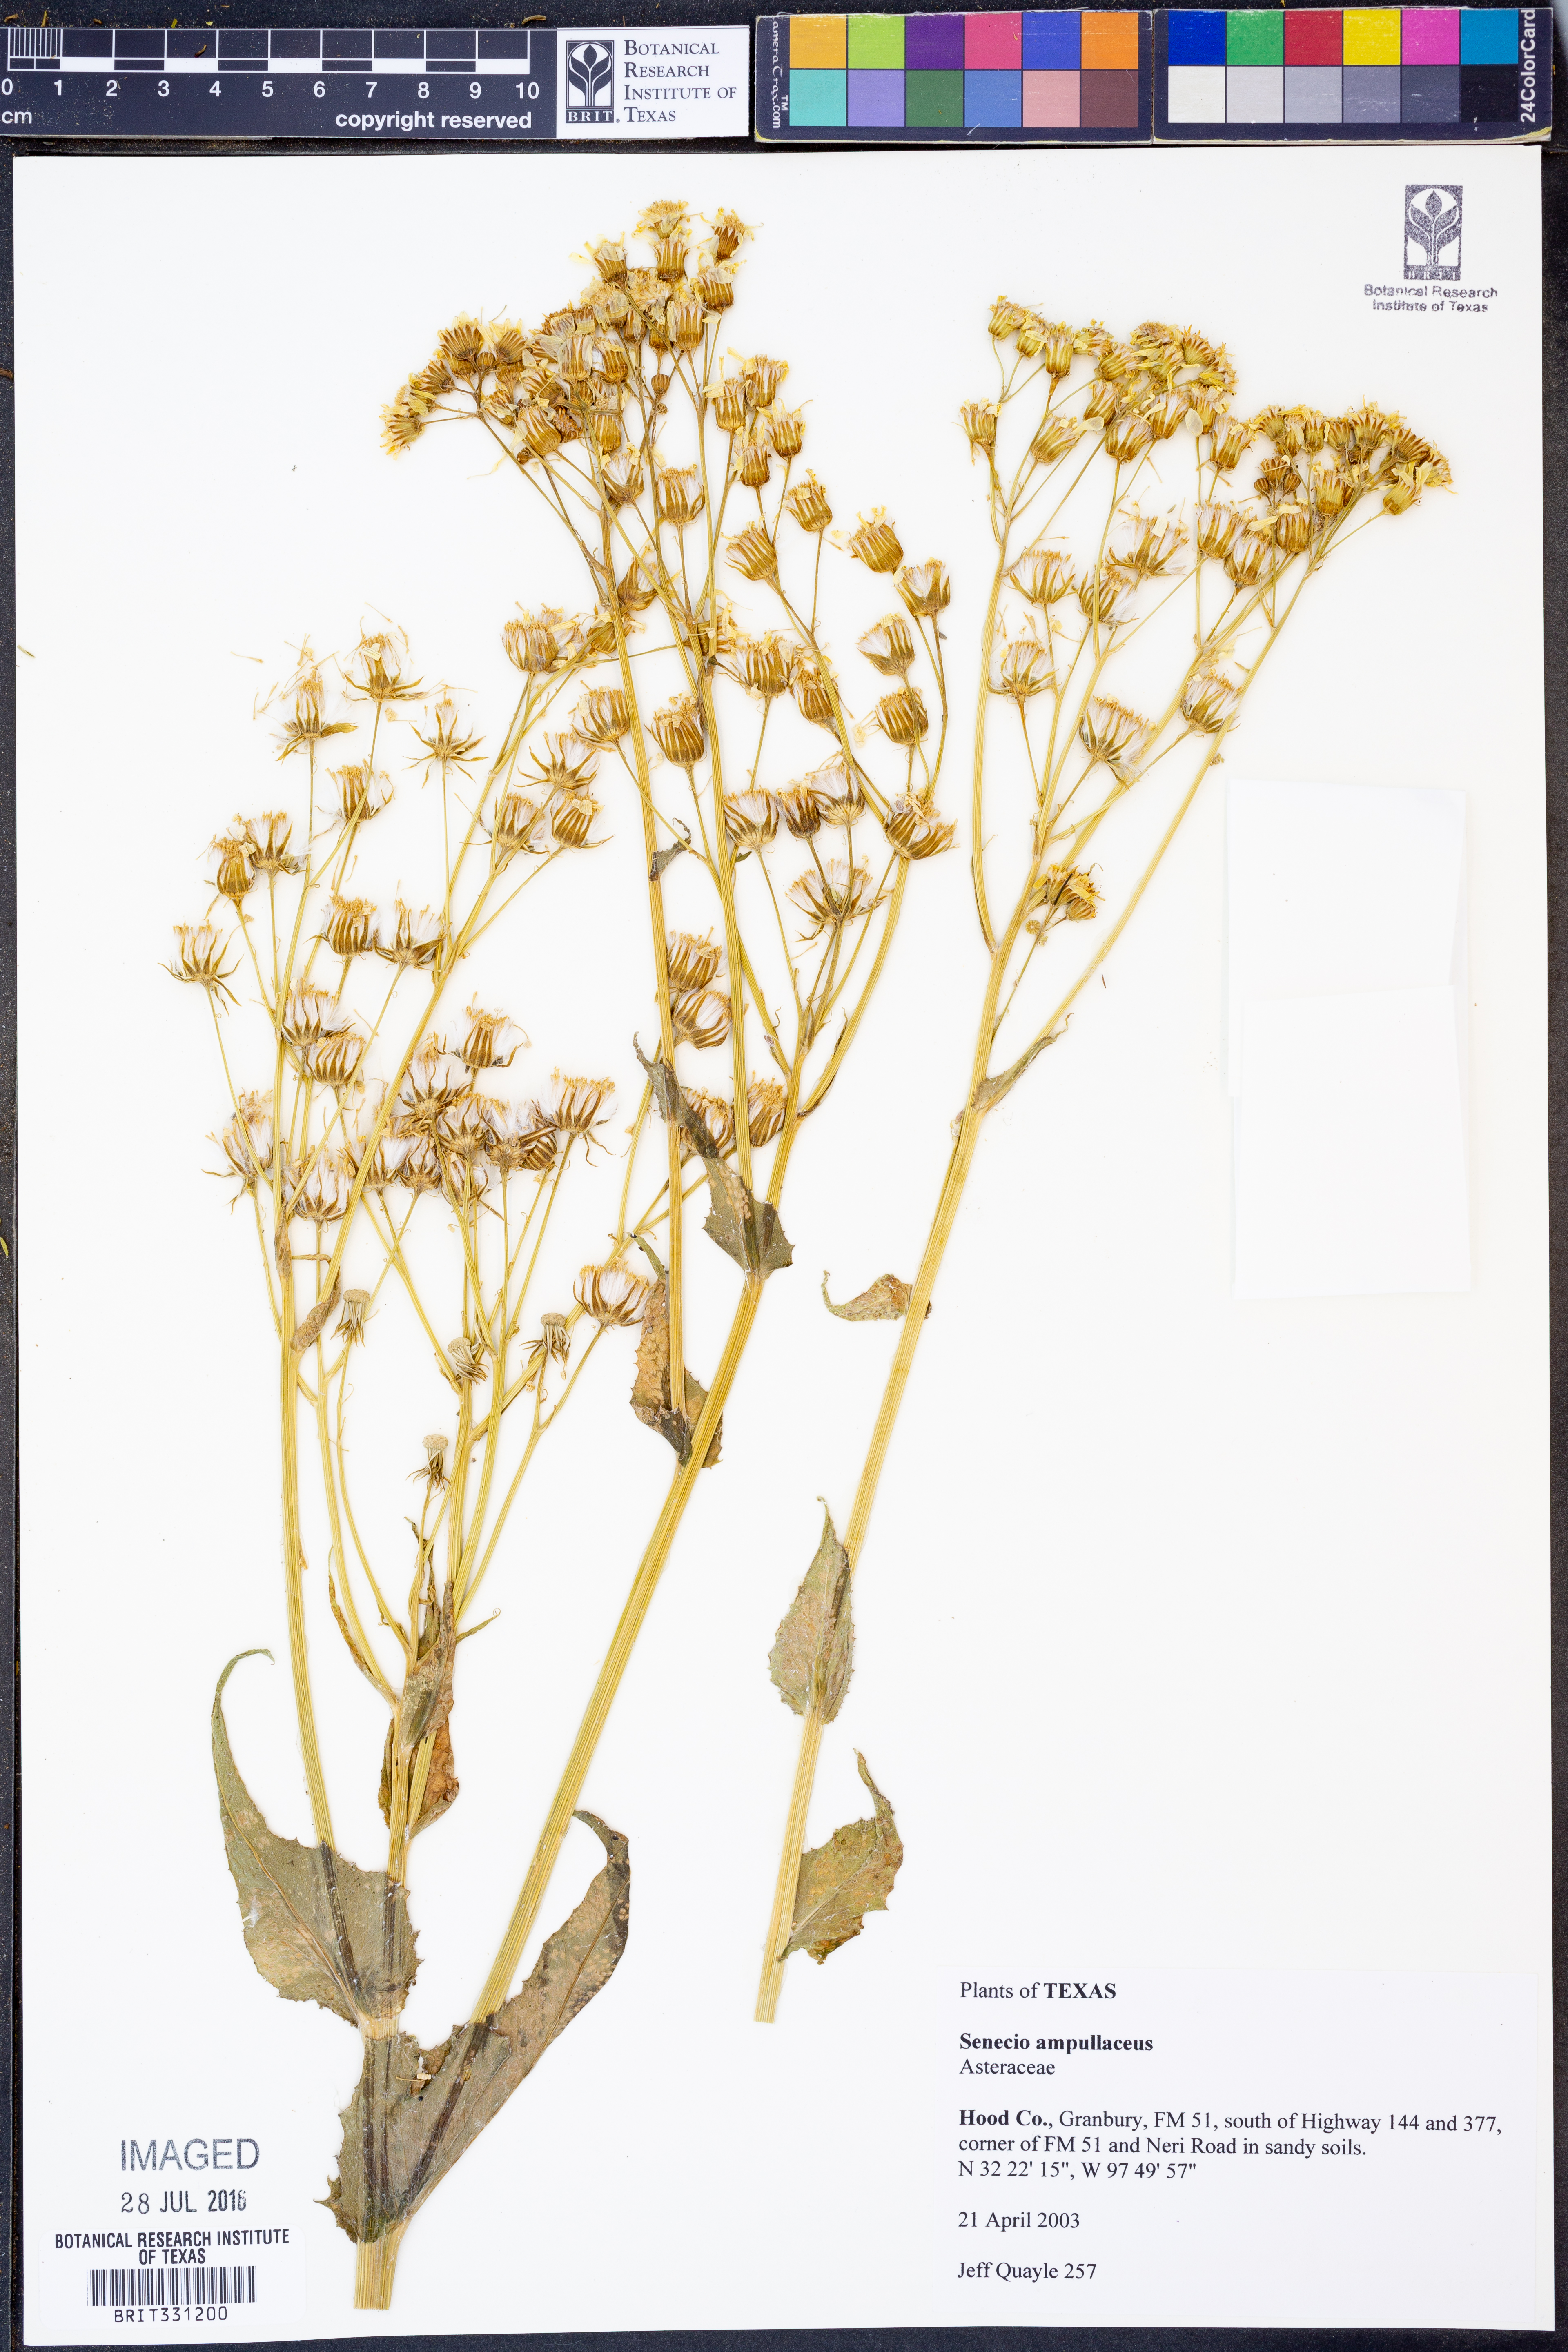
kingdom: Plantae
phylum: Tracheophyta
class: Magnoliopsida
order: Asterales
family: Asteraceae
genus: Senecio
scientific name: Senecio ampullaceus
